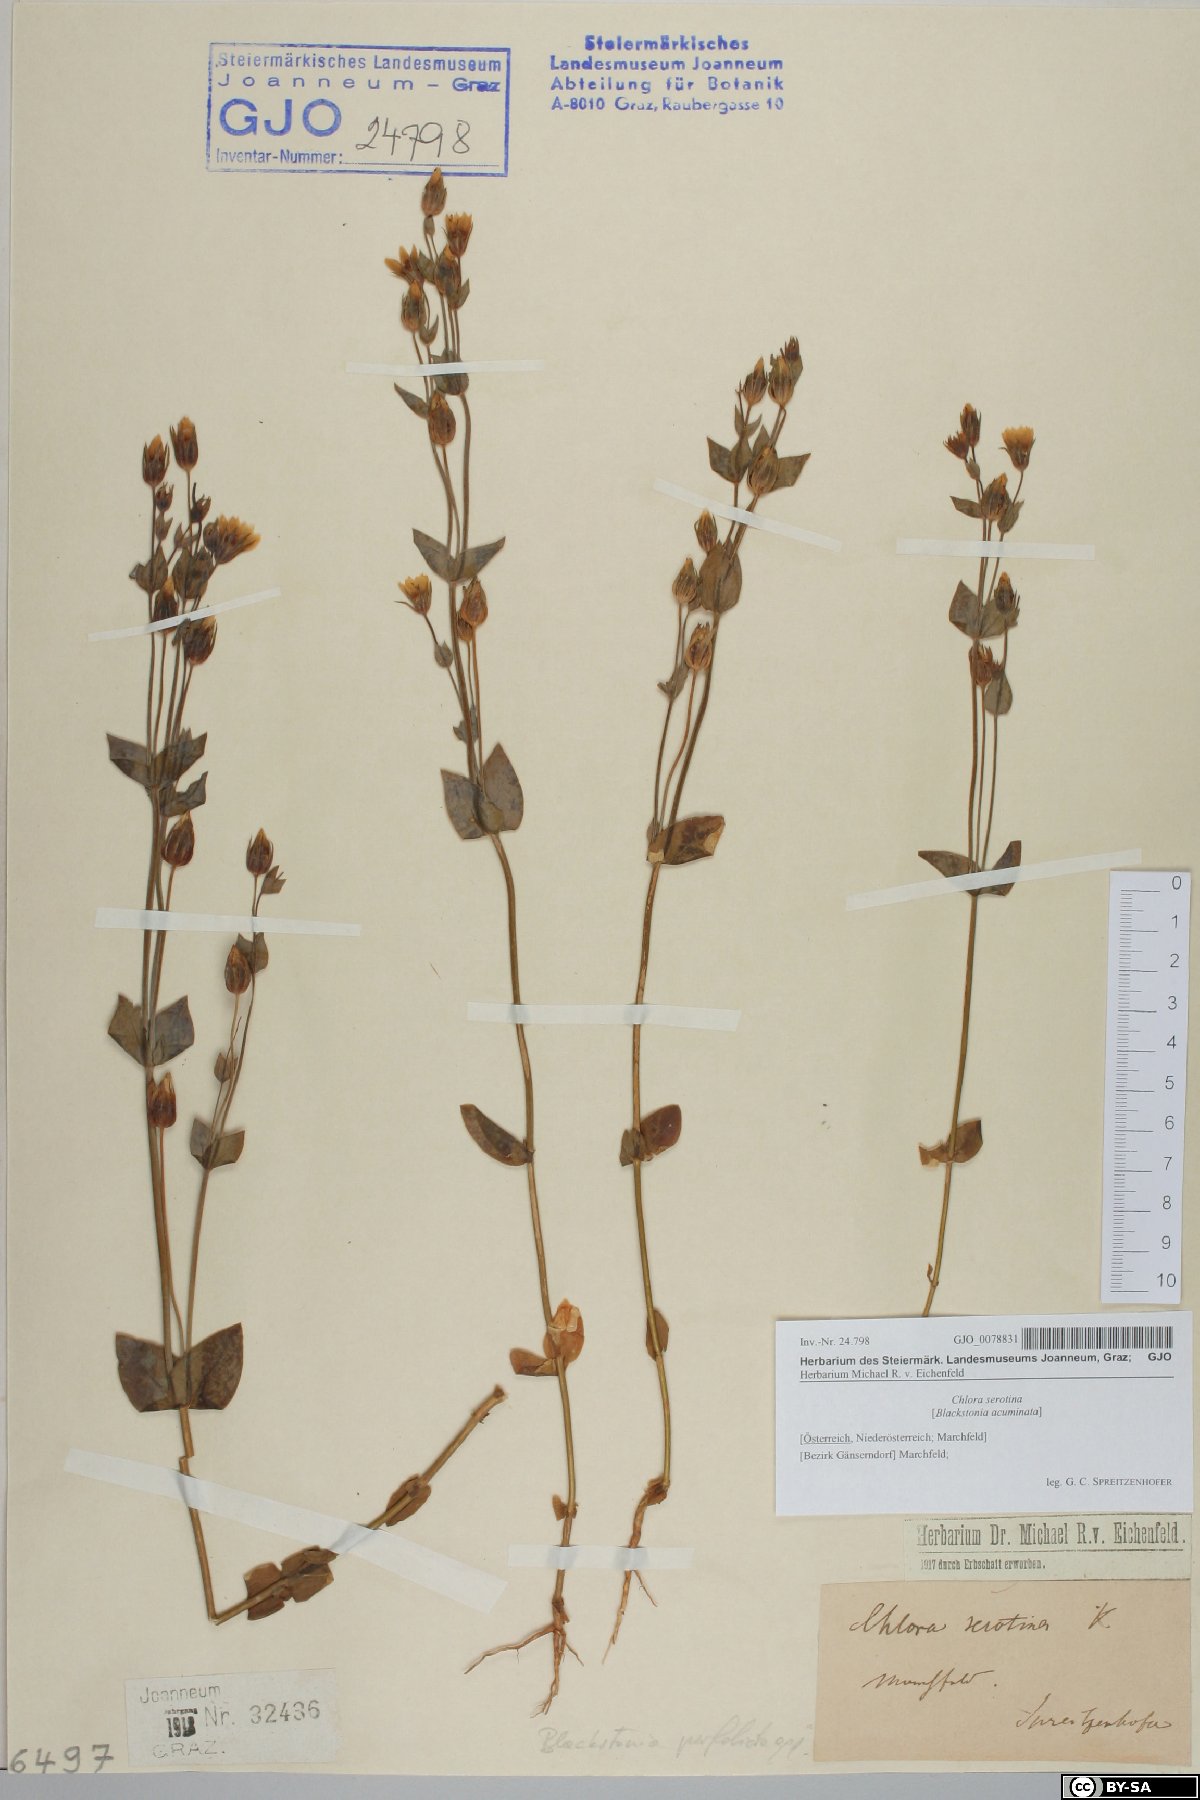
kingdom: Plantae
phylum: Tracheophyta
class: Magnoliopsida
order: Gentianales
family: Gentianaceae
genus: Blackstonia
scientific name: Blackstonia acuminata
